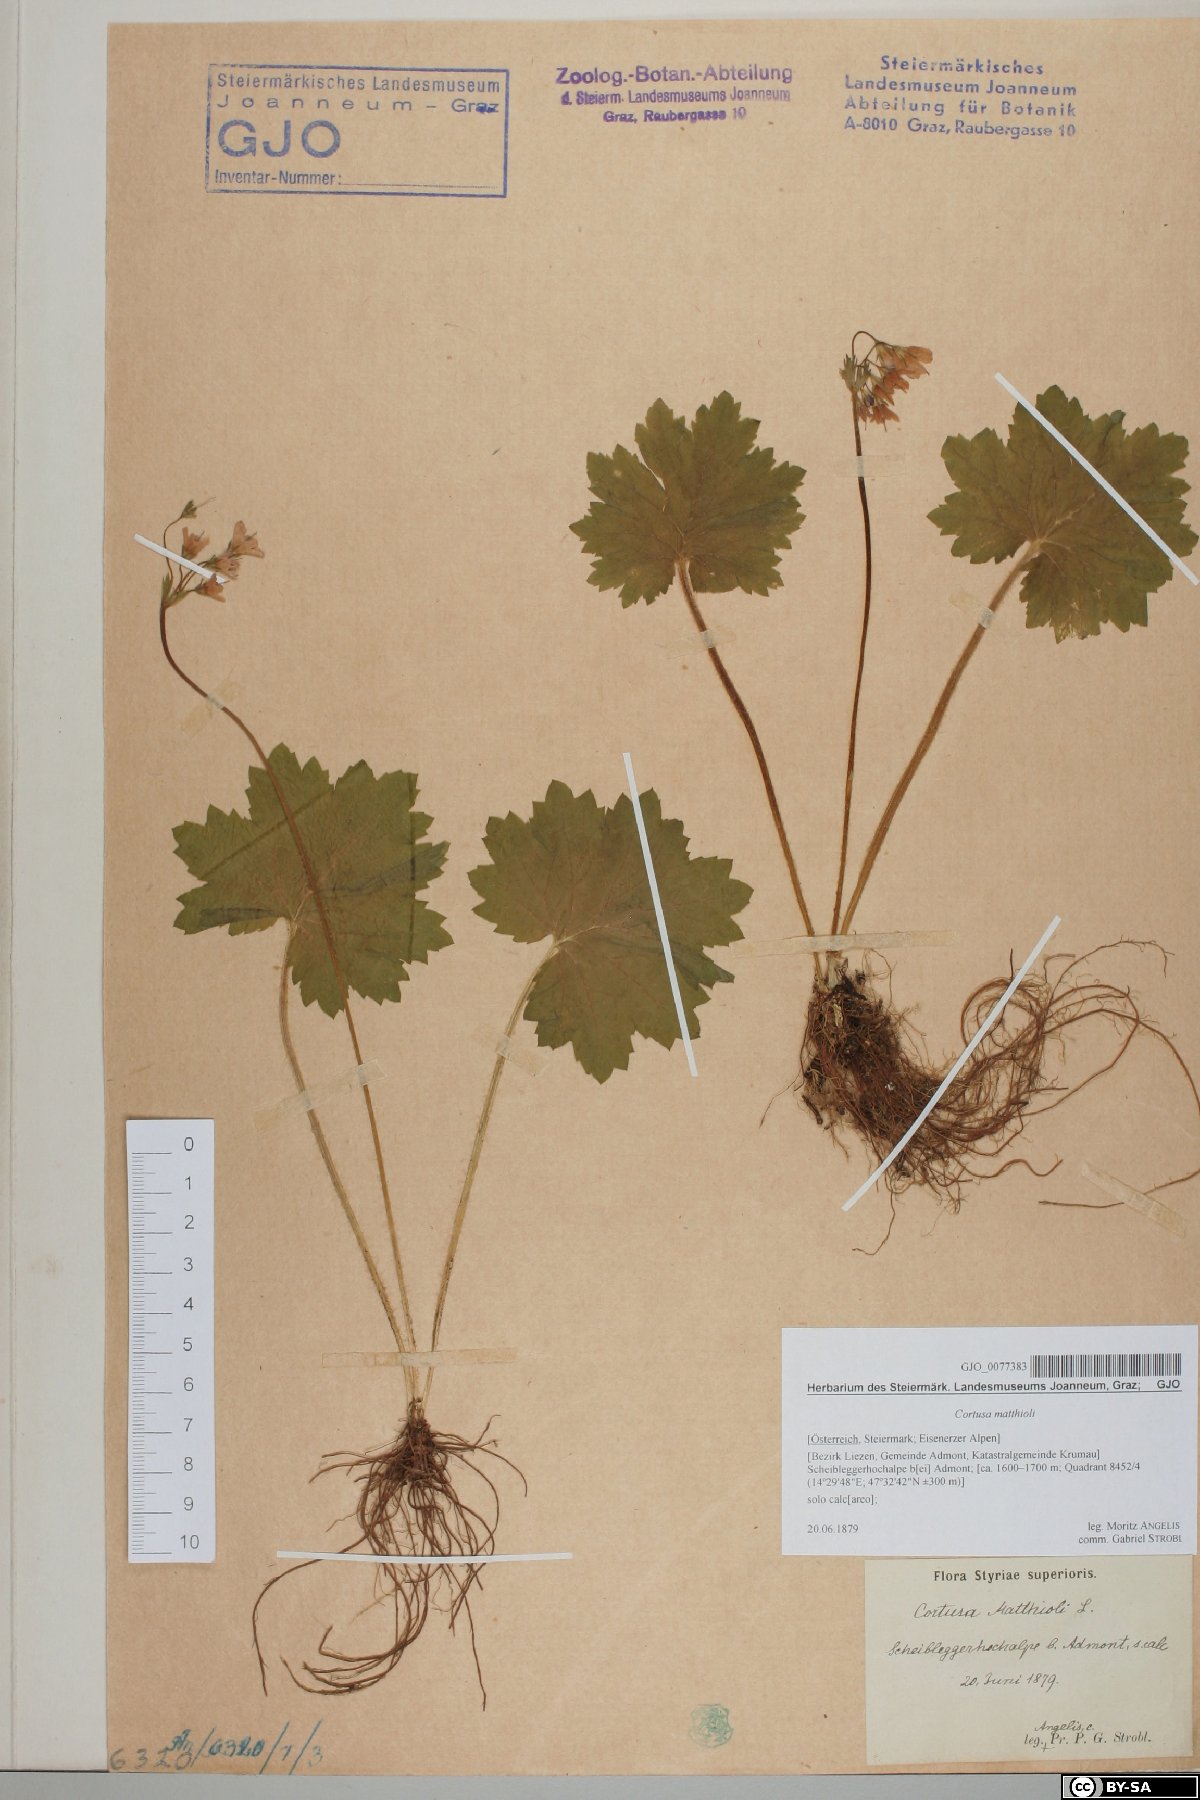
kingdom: Plantae
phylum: Tracheophyta
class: Magnoliopsida
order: Ericales
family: Primulaceae
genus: Primula
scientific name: Primula matthioli
